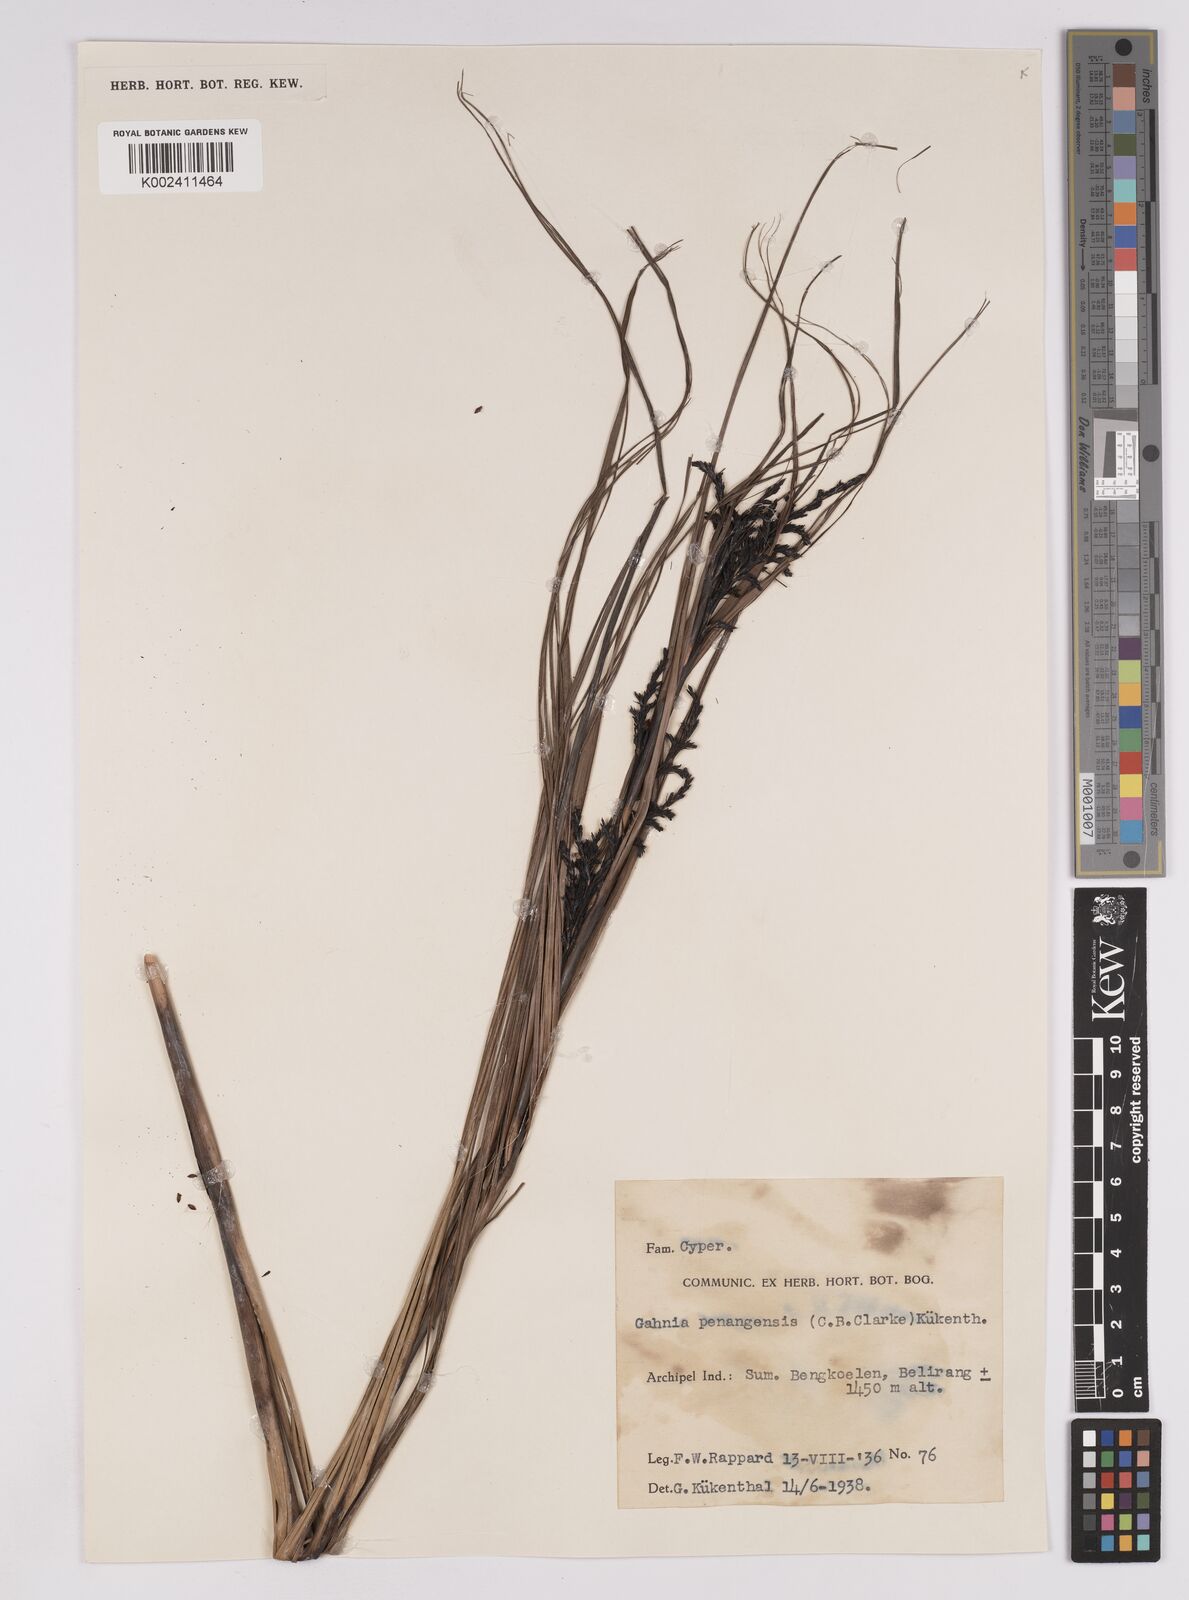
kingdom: Plantae
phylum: Tracheophyta
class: Liliopsida
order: Poales
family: Cyperaceae
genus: Gahnia
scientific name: Gahnia baniensis
